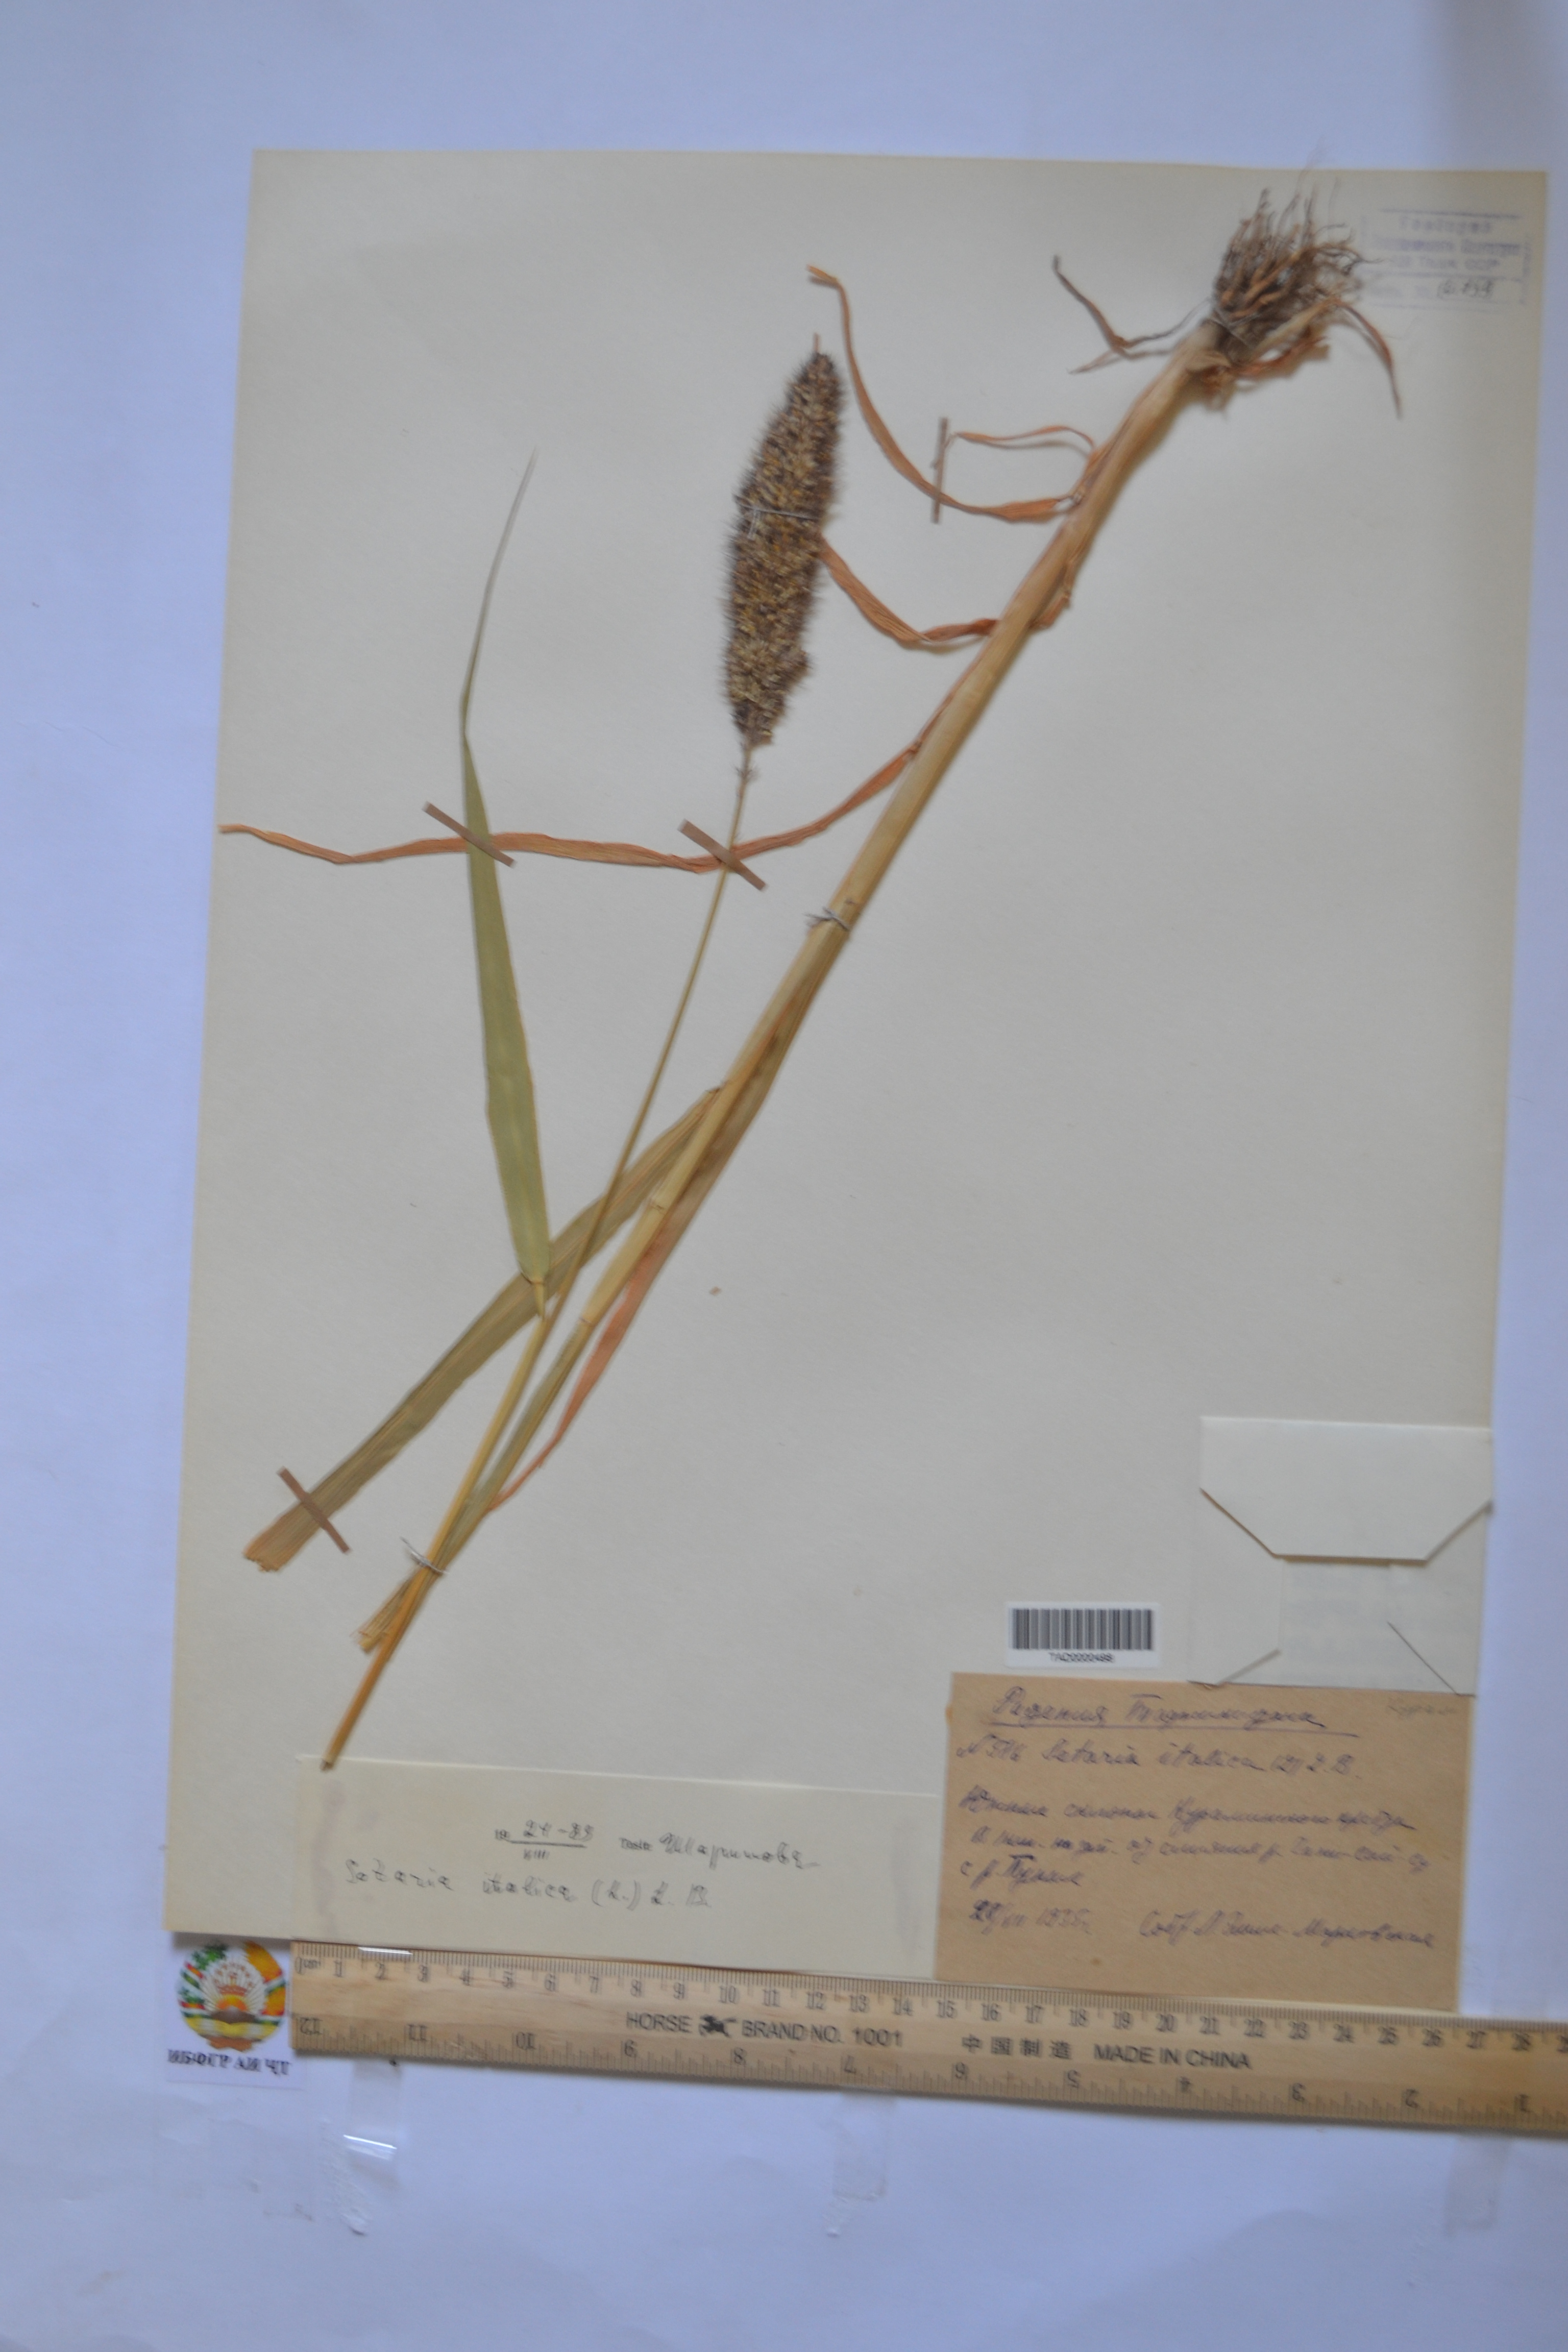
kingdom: Plantae
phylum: Tracheophyta
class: Liliopsida
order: Poales
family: Poaceae
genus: Setaria
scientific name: Setaria italica
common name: Foxtail bristle-grass
